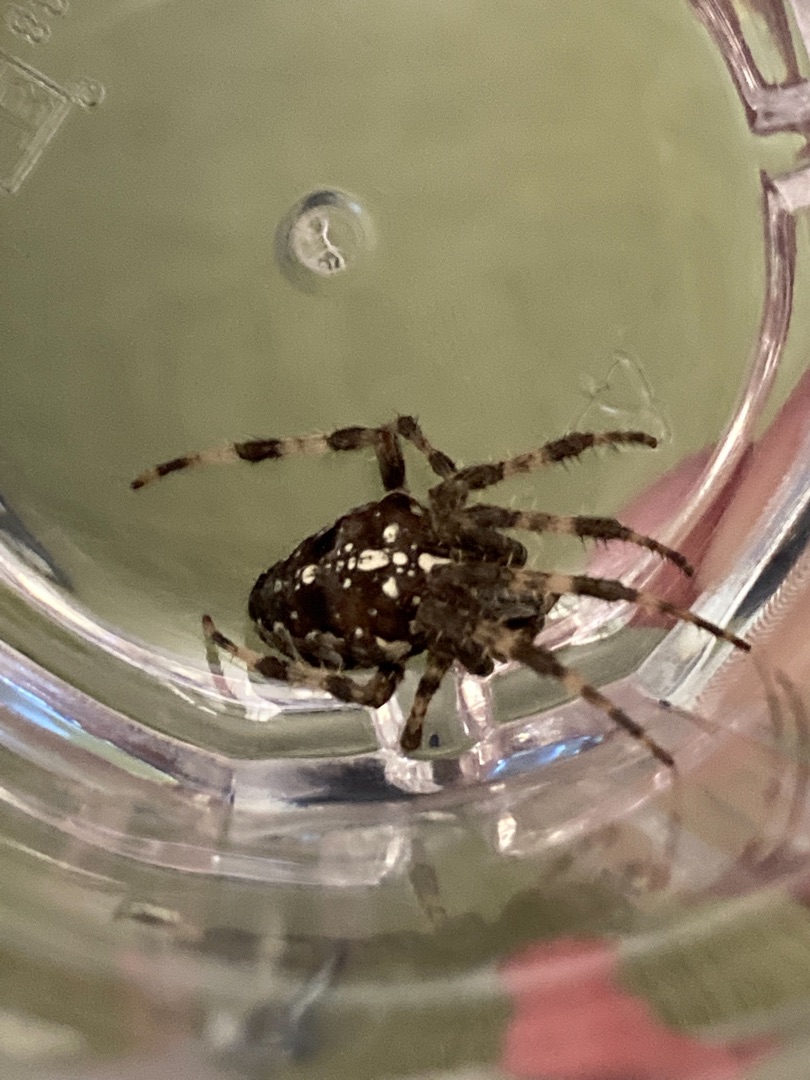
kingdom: Animalia
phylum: Arthropoda
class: Arachnida
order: Araneae
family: Araneidae
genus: Araneus
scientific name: Araneus diadematus
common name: Korsedderkop
